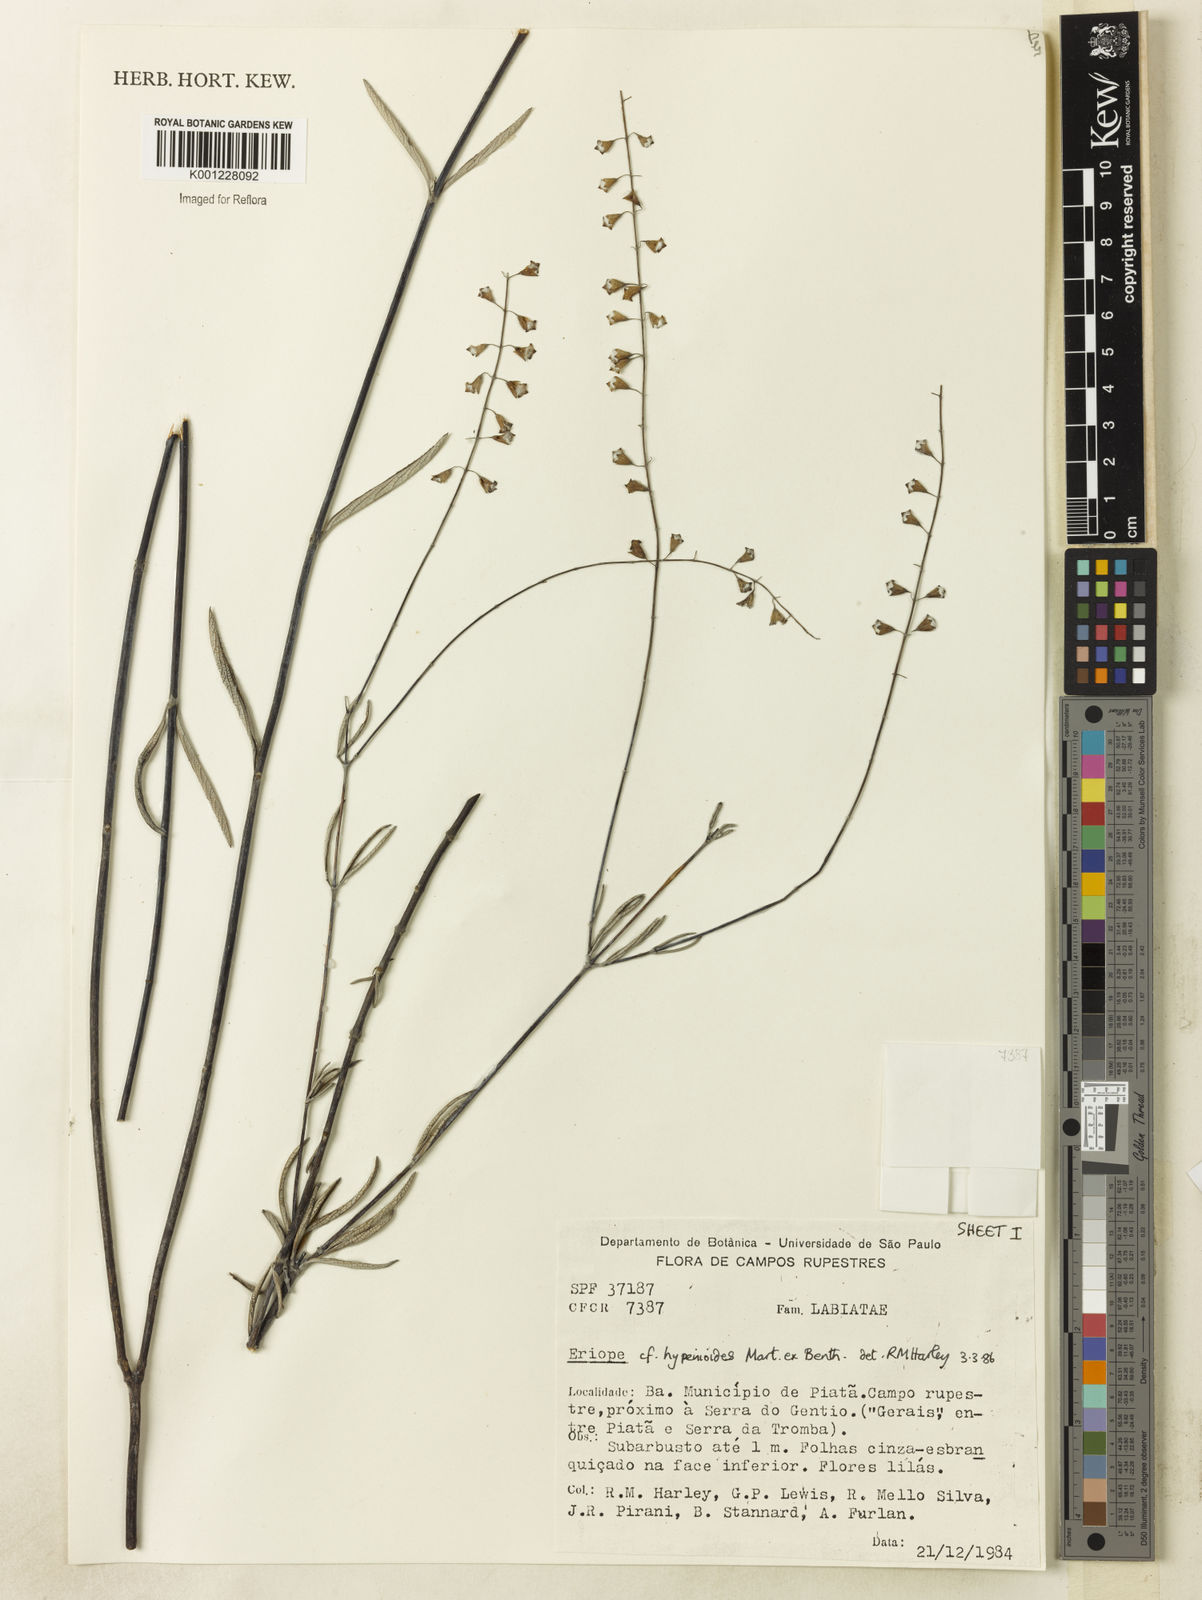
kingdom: Plantae
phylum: Tracheophyta
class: Magnoliopsida
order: Lamiales
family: Lamiaceae
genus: Eriope
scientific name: Eriope hypenioides
